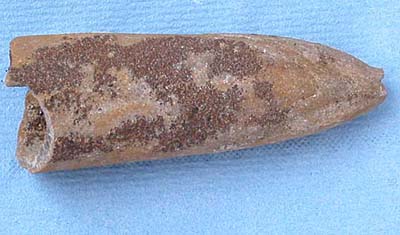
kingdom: Animalia
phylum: Mollusca
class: Cephalopoda
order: Belemnitida
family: Megateuthididae
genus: Acrocoelites
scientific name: Acrocoelites
